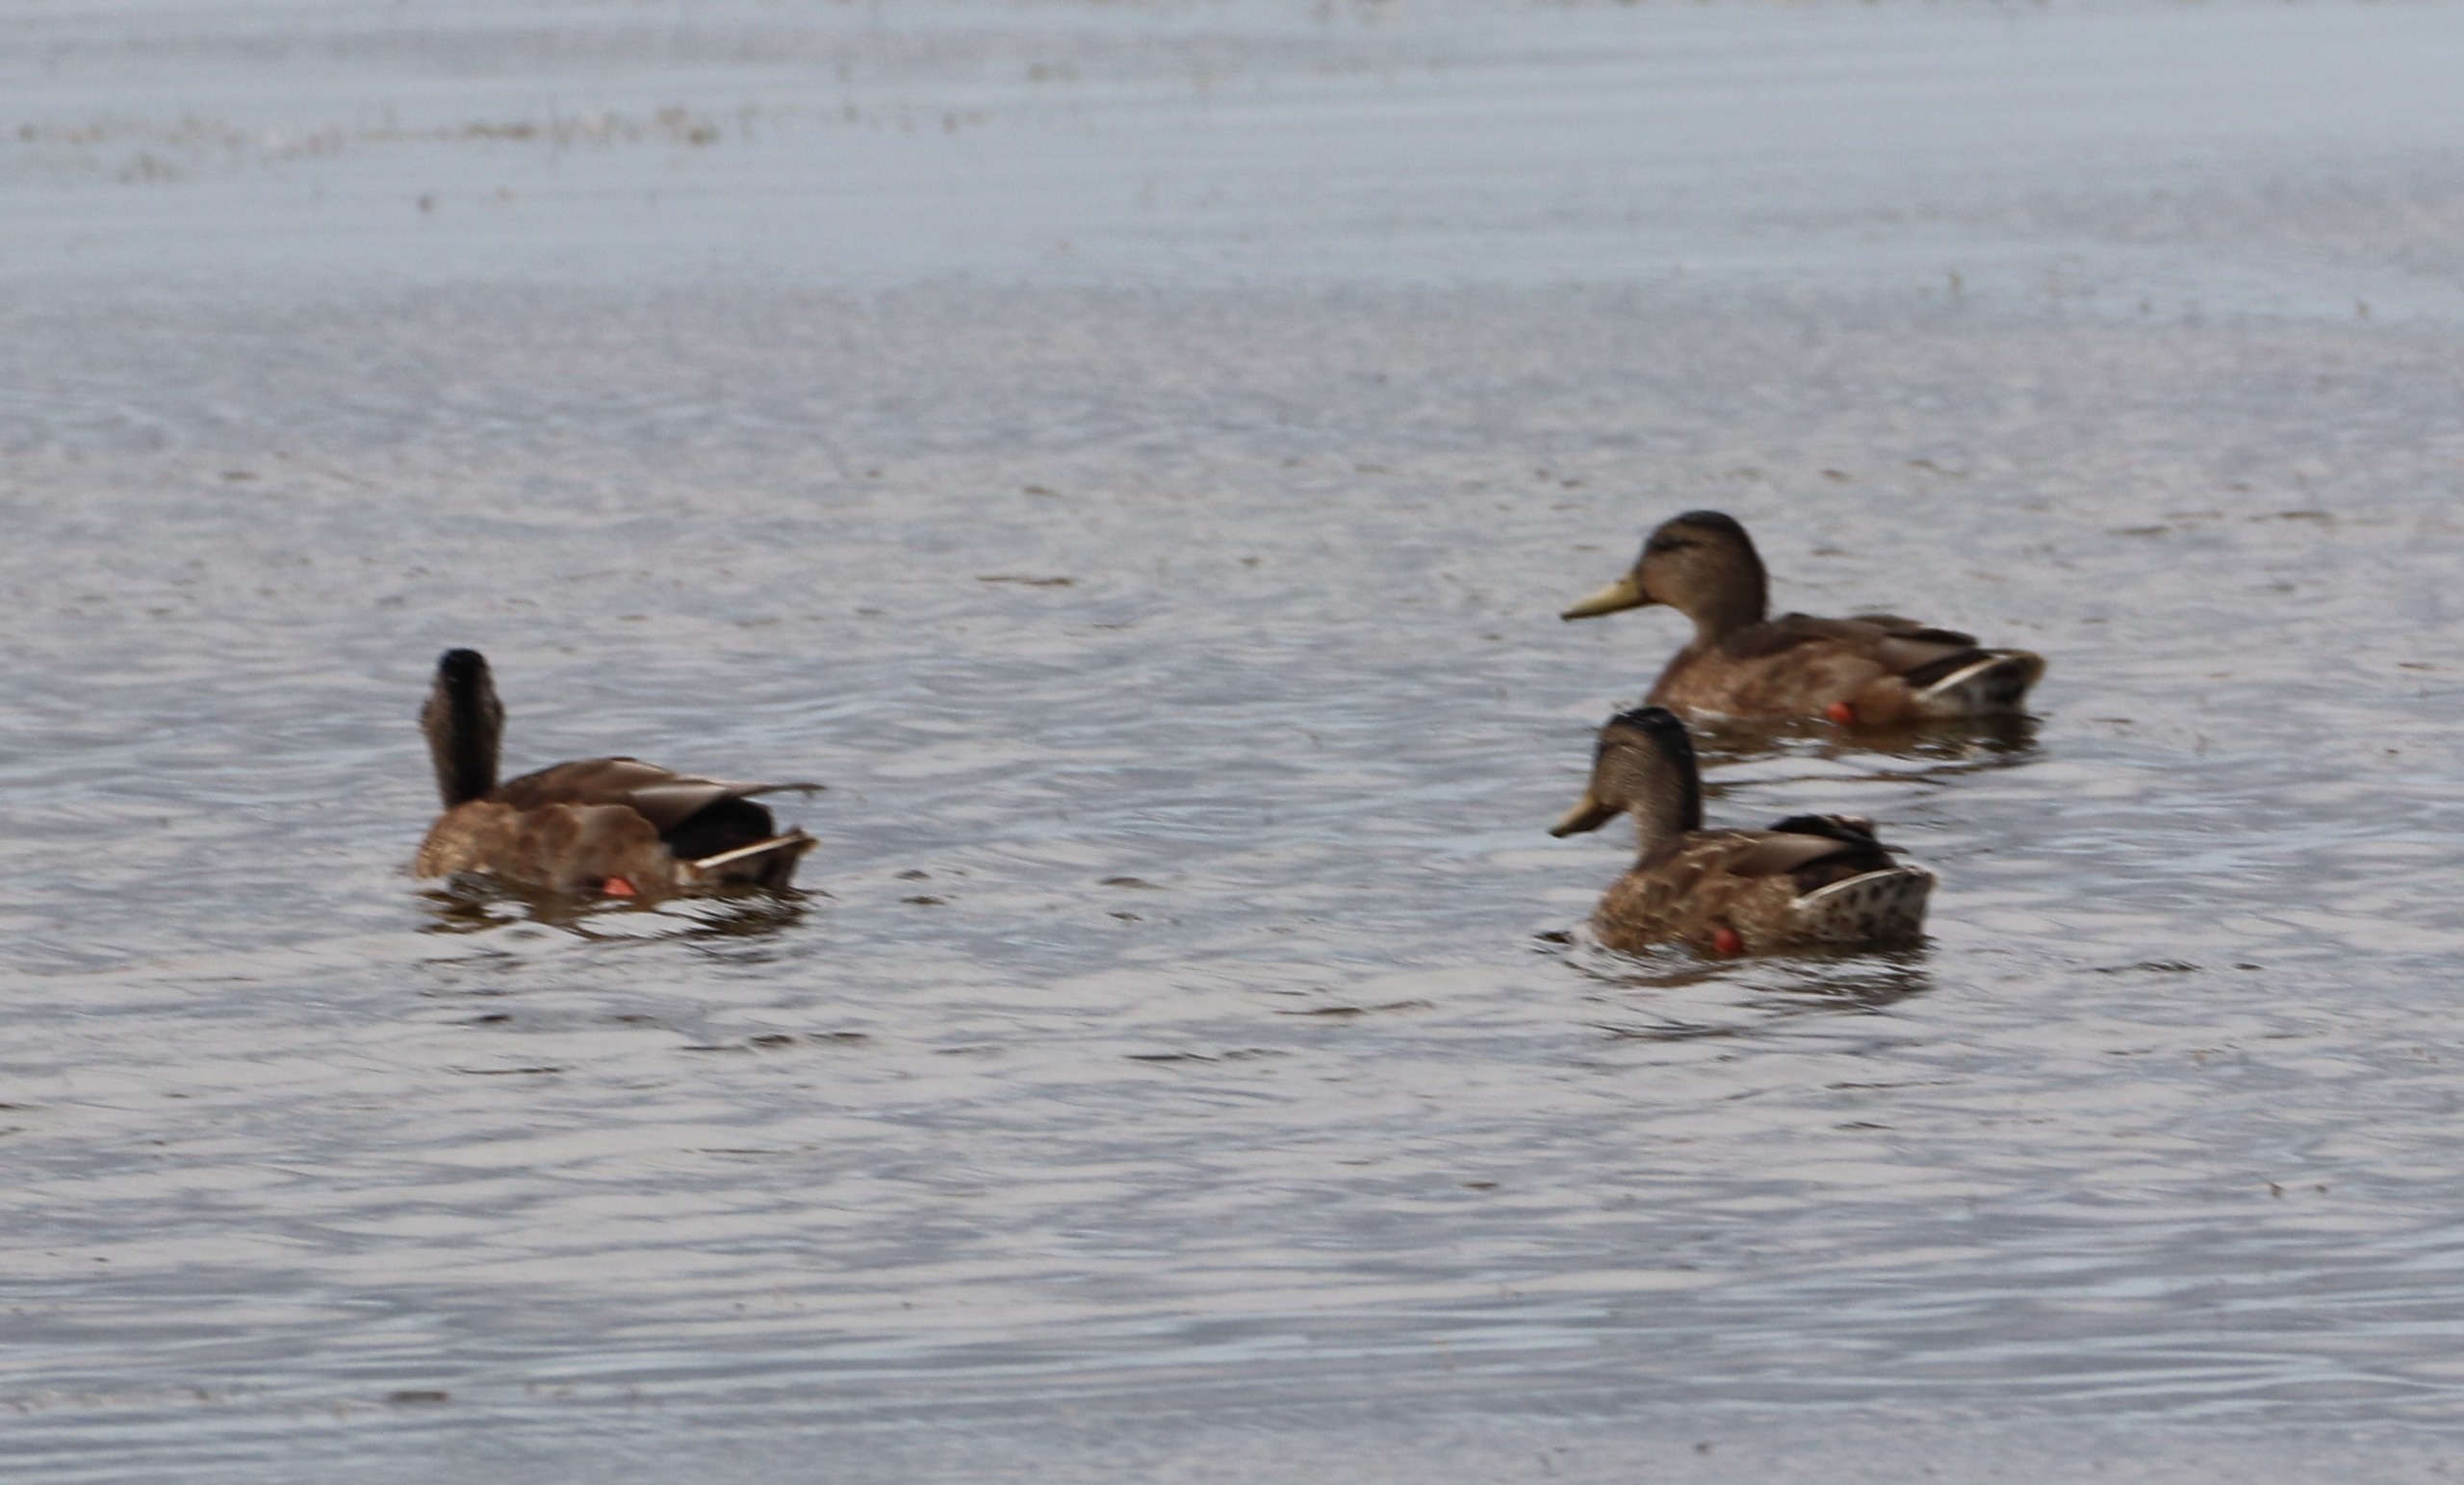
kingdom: Animalia
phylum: Chordata
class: Aves
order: Anseriformes
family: Anatidae
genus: Anas
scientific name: Anas platyrhynchos
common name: Gråand
